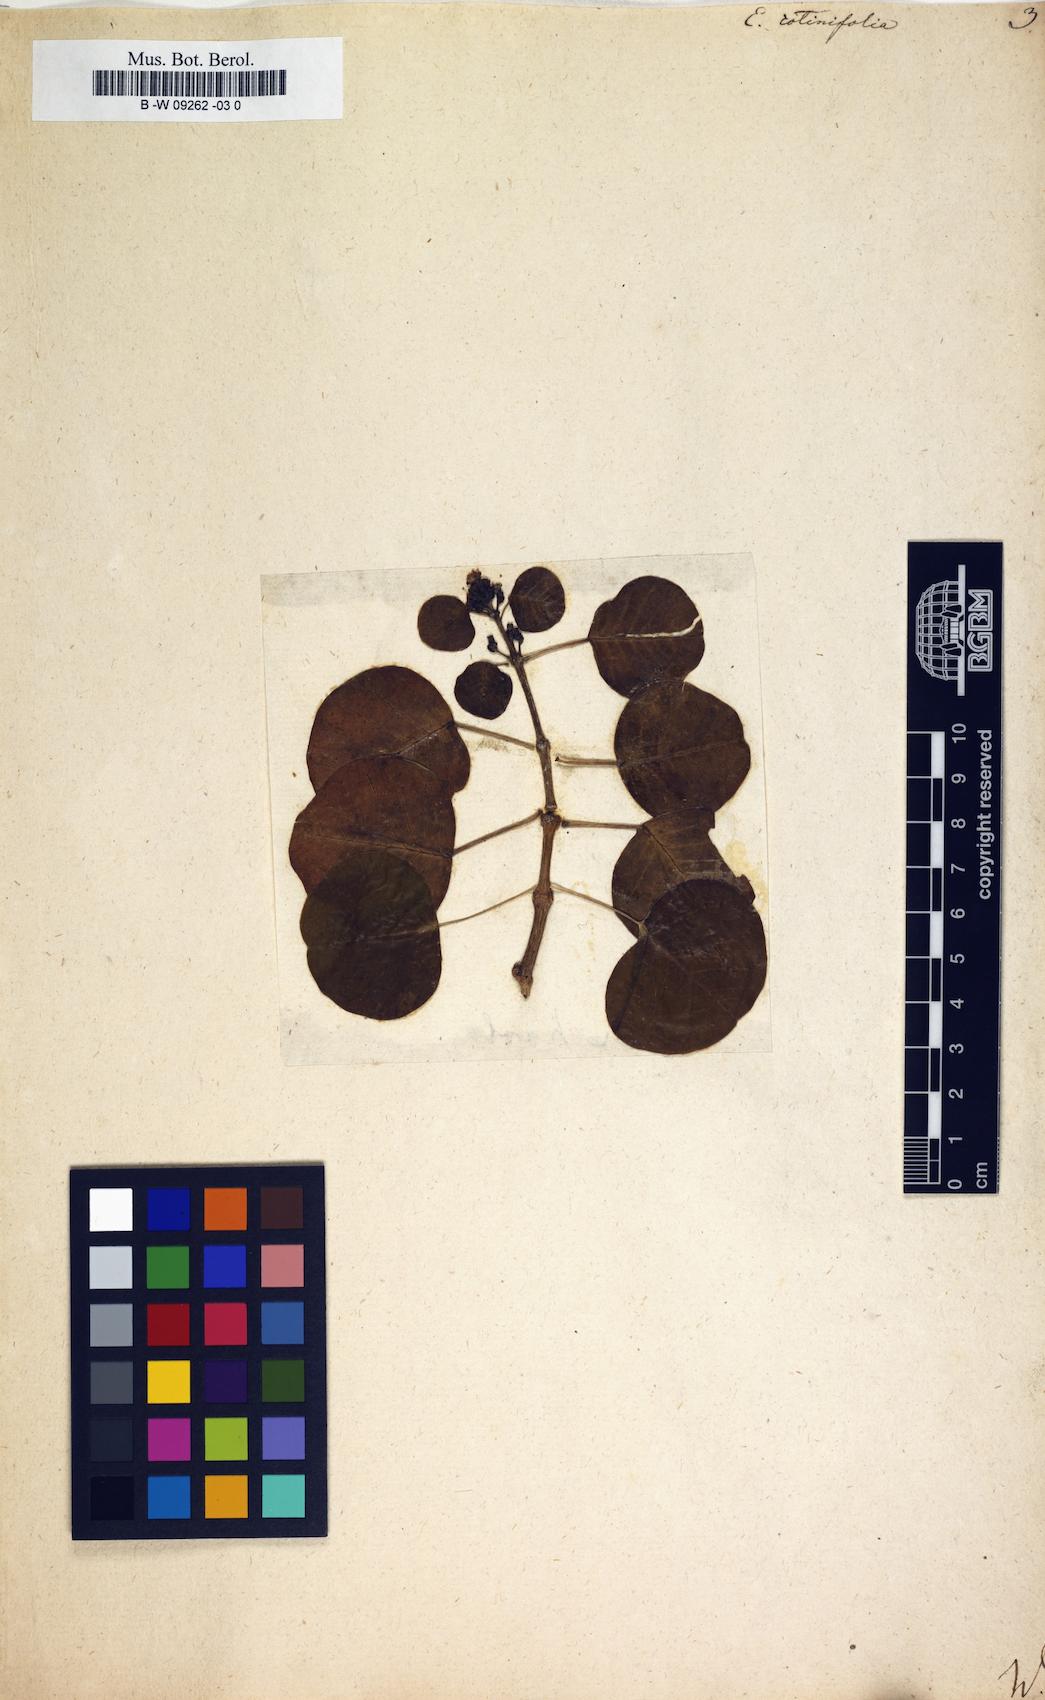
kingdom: Plantae
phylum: Tracheophyta
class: Magnoliopsida
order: Malpighiales
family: Euphorbiaceae
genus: Euphorbia
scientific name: Euphorbia cotinifolia
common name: Tropical smokebush
